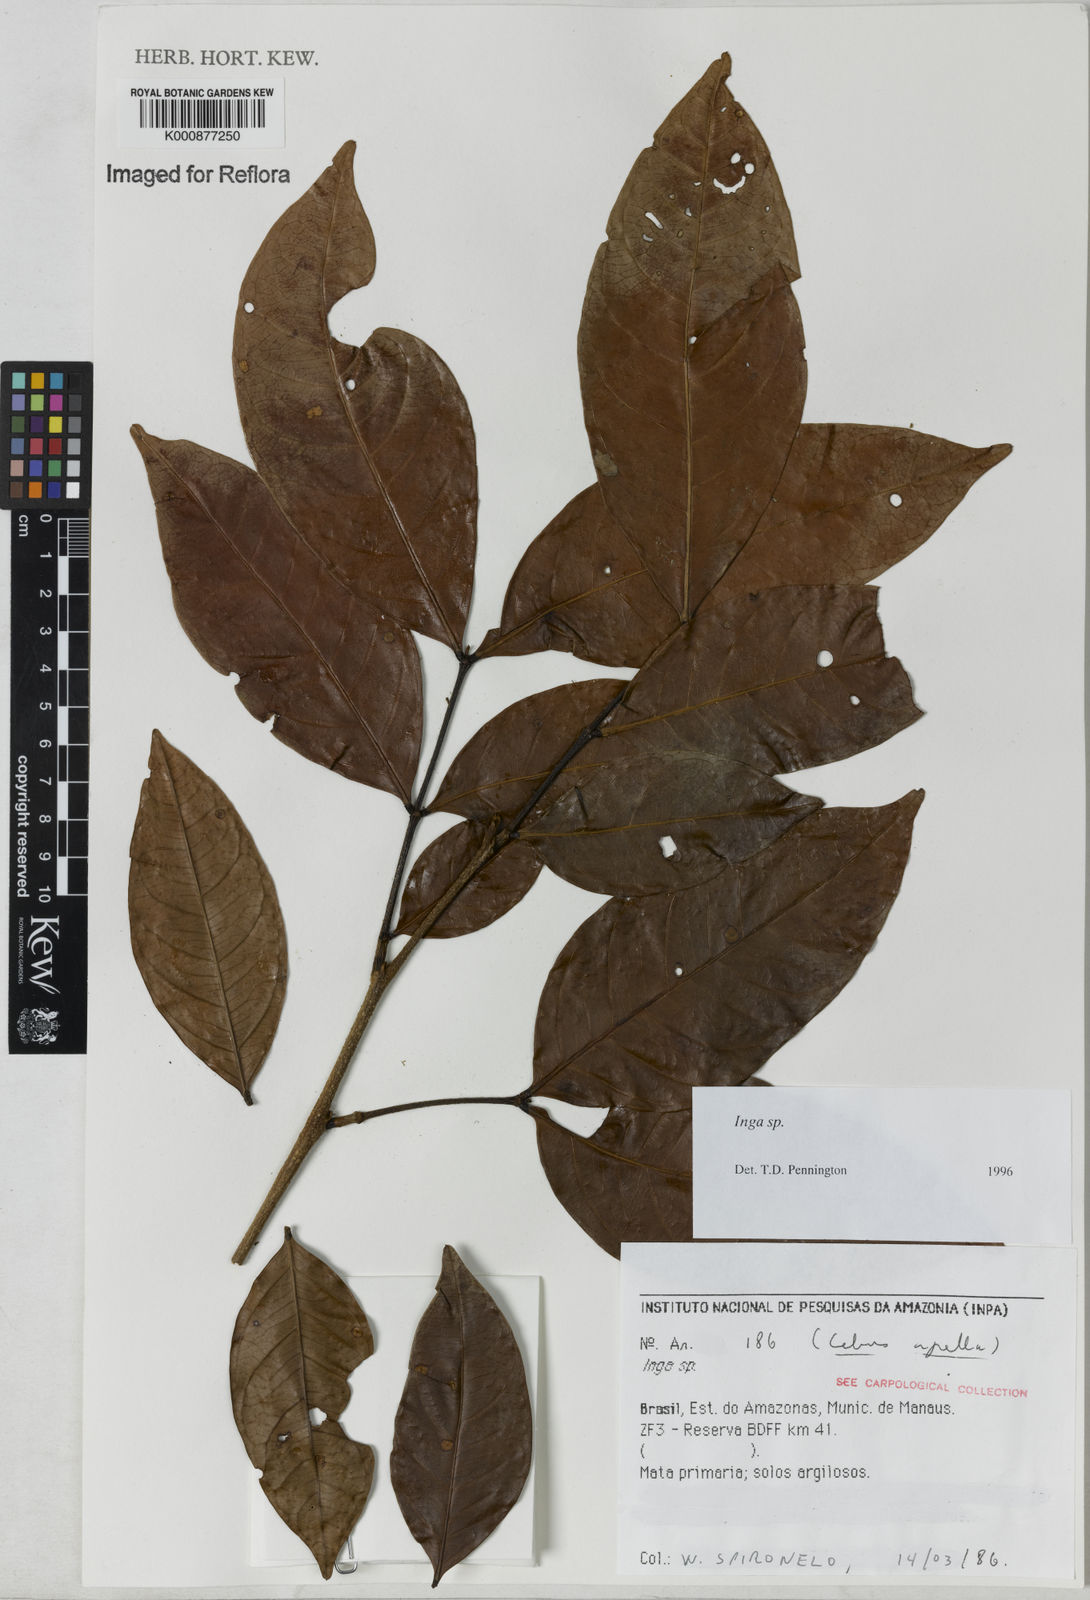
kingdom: Plantae
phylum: Tracheophyta
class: Magnoliopsida
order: Fabales
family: Fabaceae
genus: Inga
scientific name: Inga
